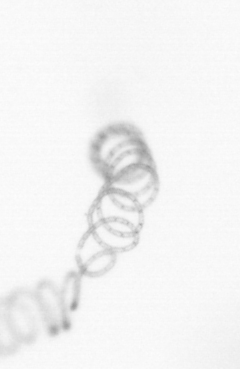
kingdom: Chromista
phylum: Ochrophyta
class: Bacillariophyceae
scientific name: Bacillariophyceae
